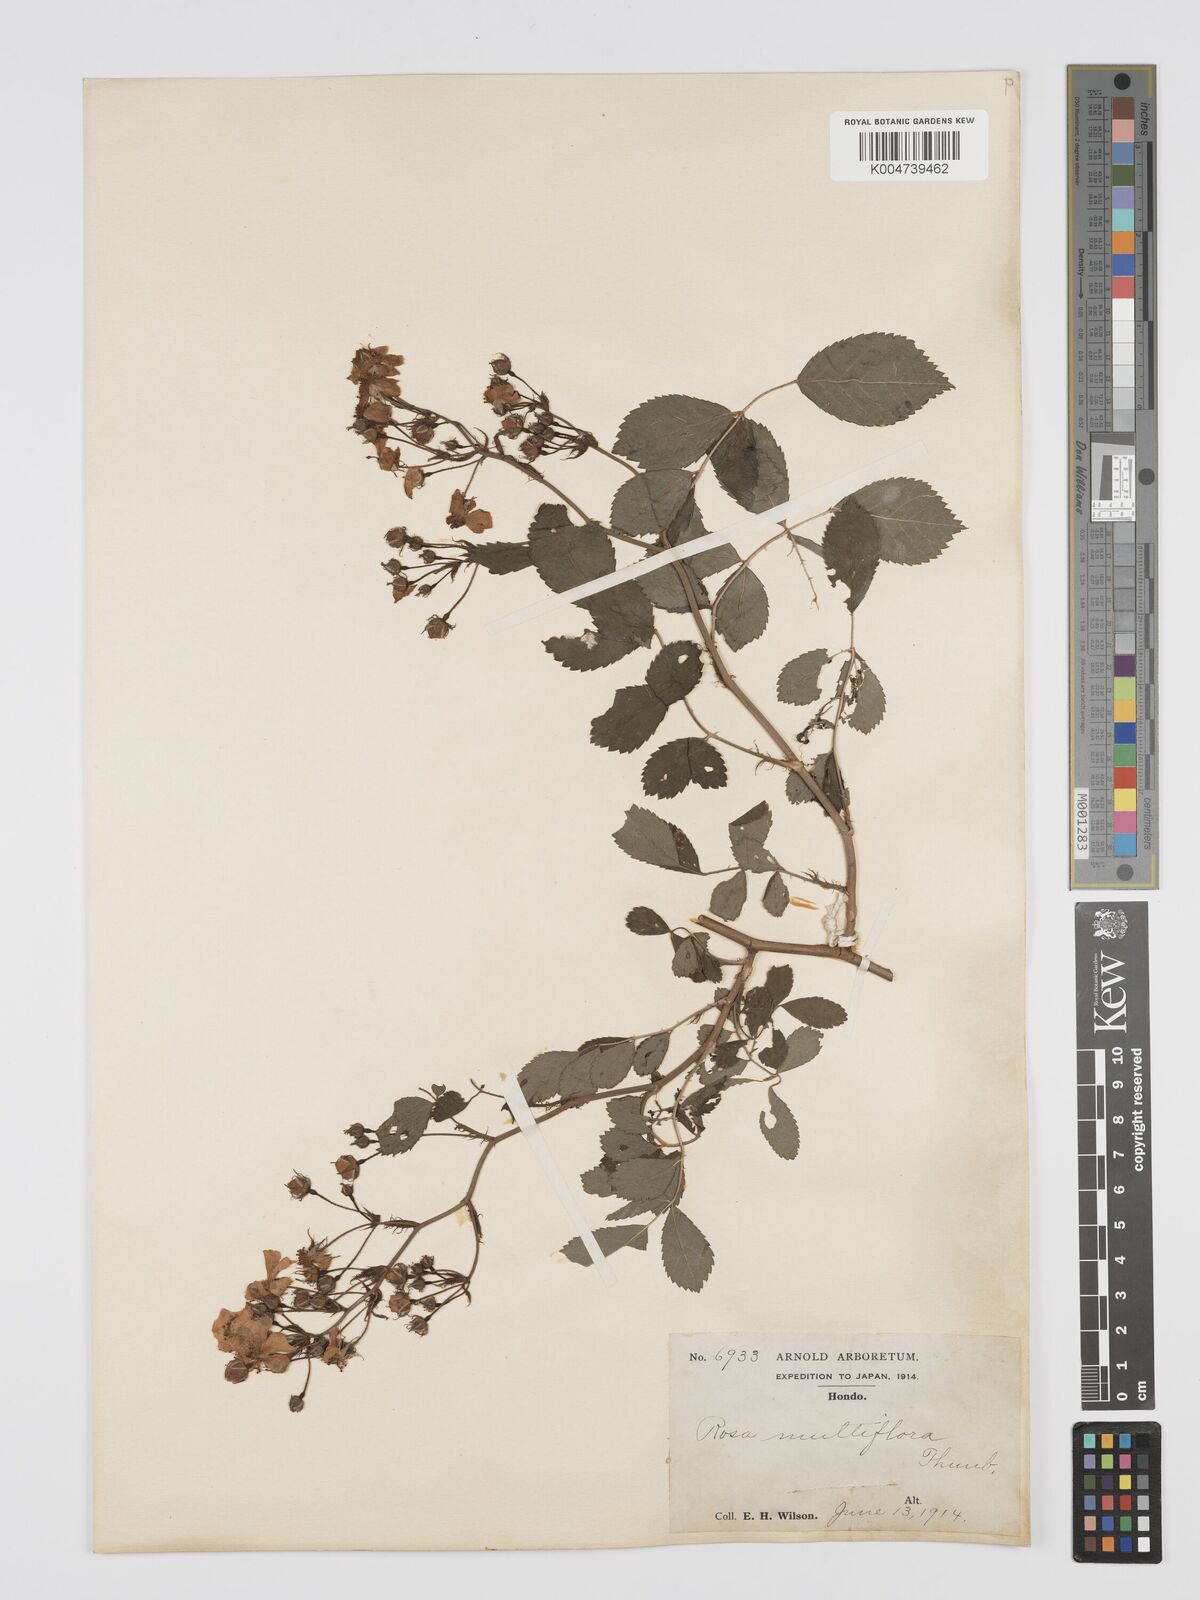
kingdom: Plantae
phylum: Tracheophyta
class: Magnoliopsida
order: Rosales
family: Rosaceae
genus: Rosa
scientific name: Rosa
